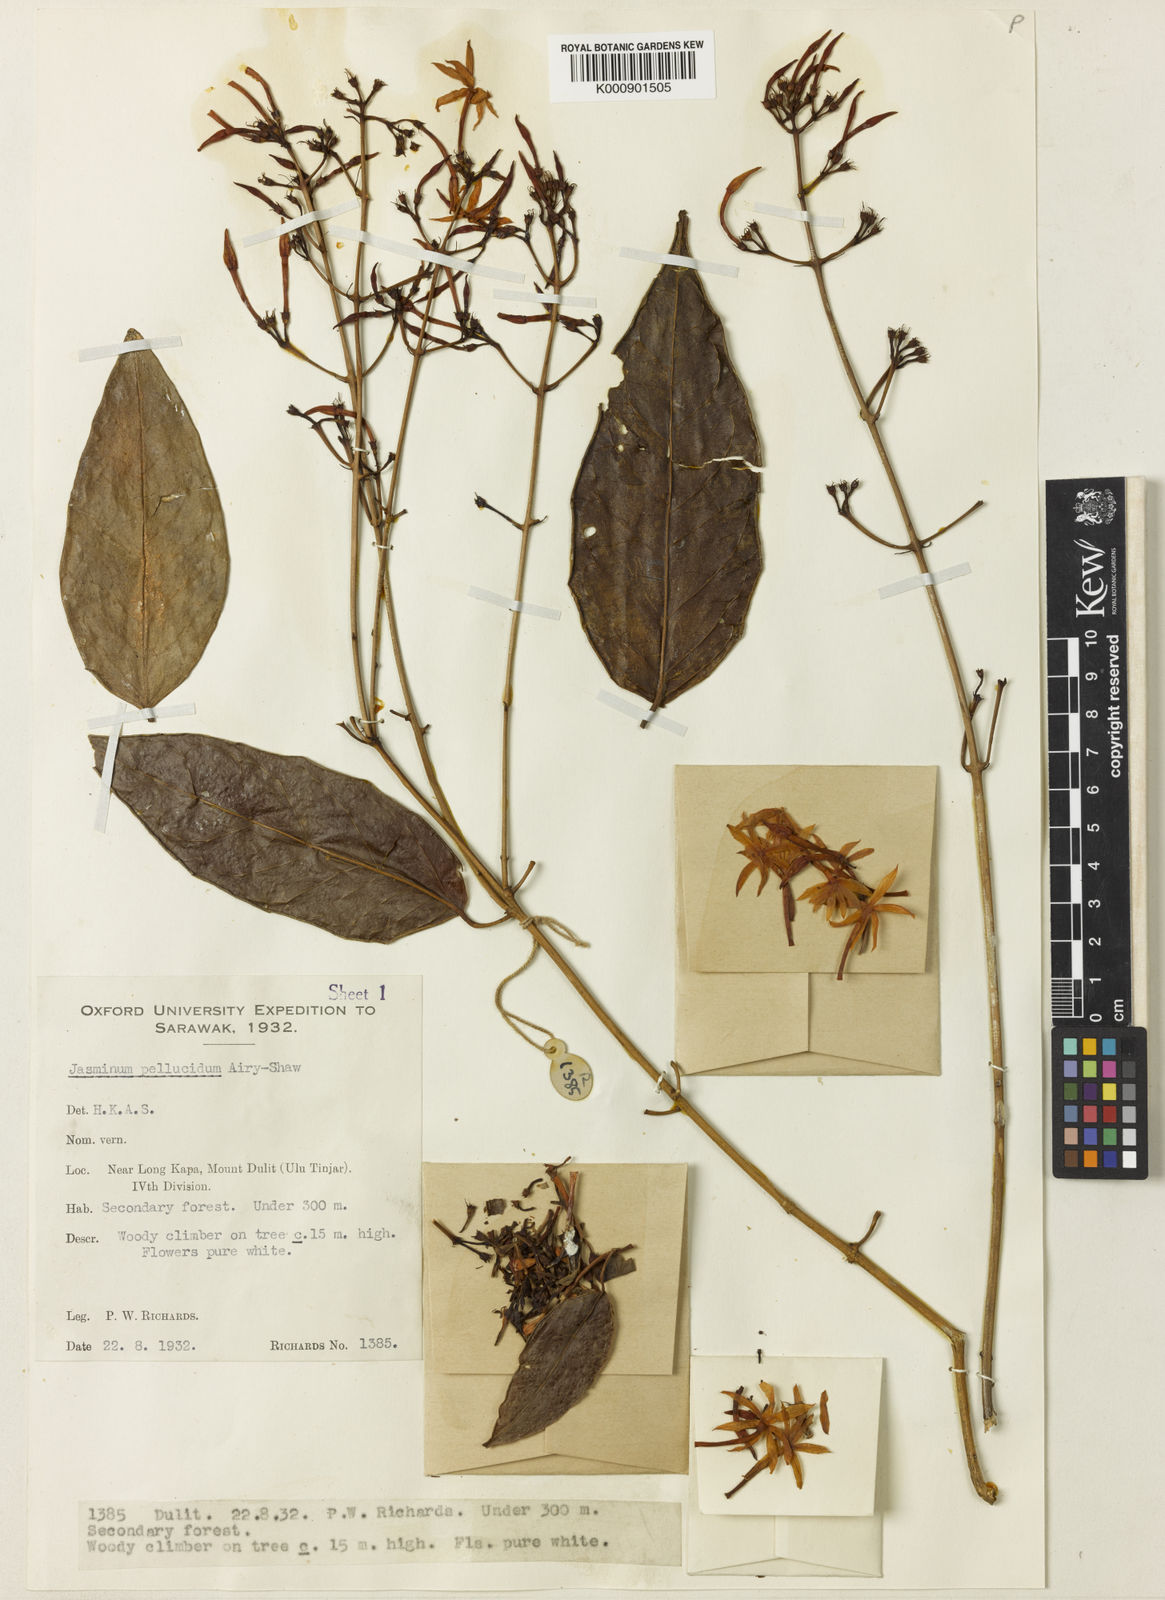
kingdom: Plantae
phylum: Tracheophyta
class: Magnoliopsida
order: Lamiales
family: Oleaceae
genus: Jasminum
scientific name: Jasminum pellucidum
